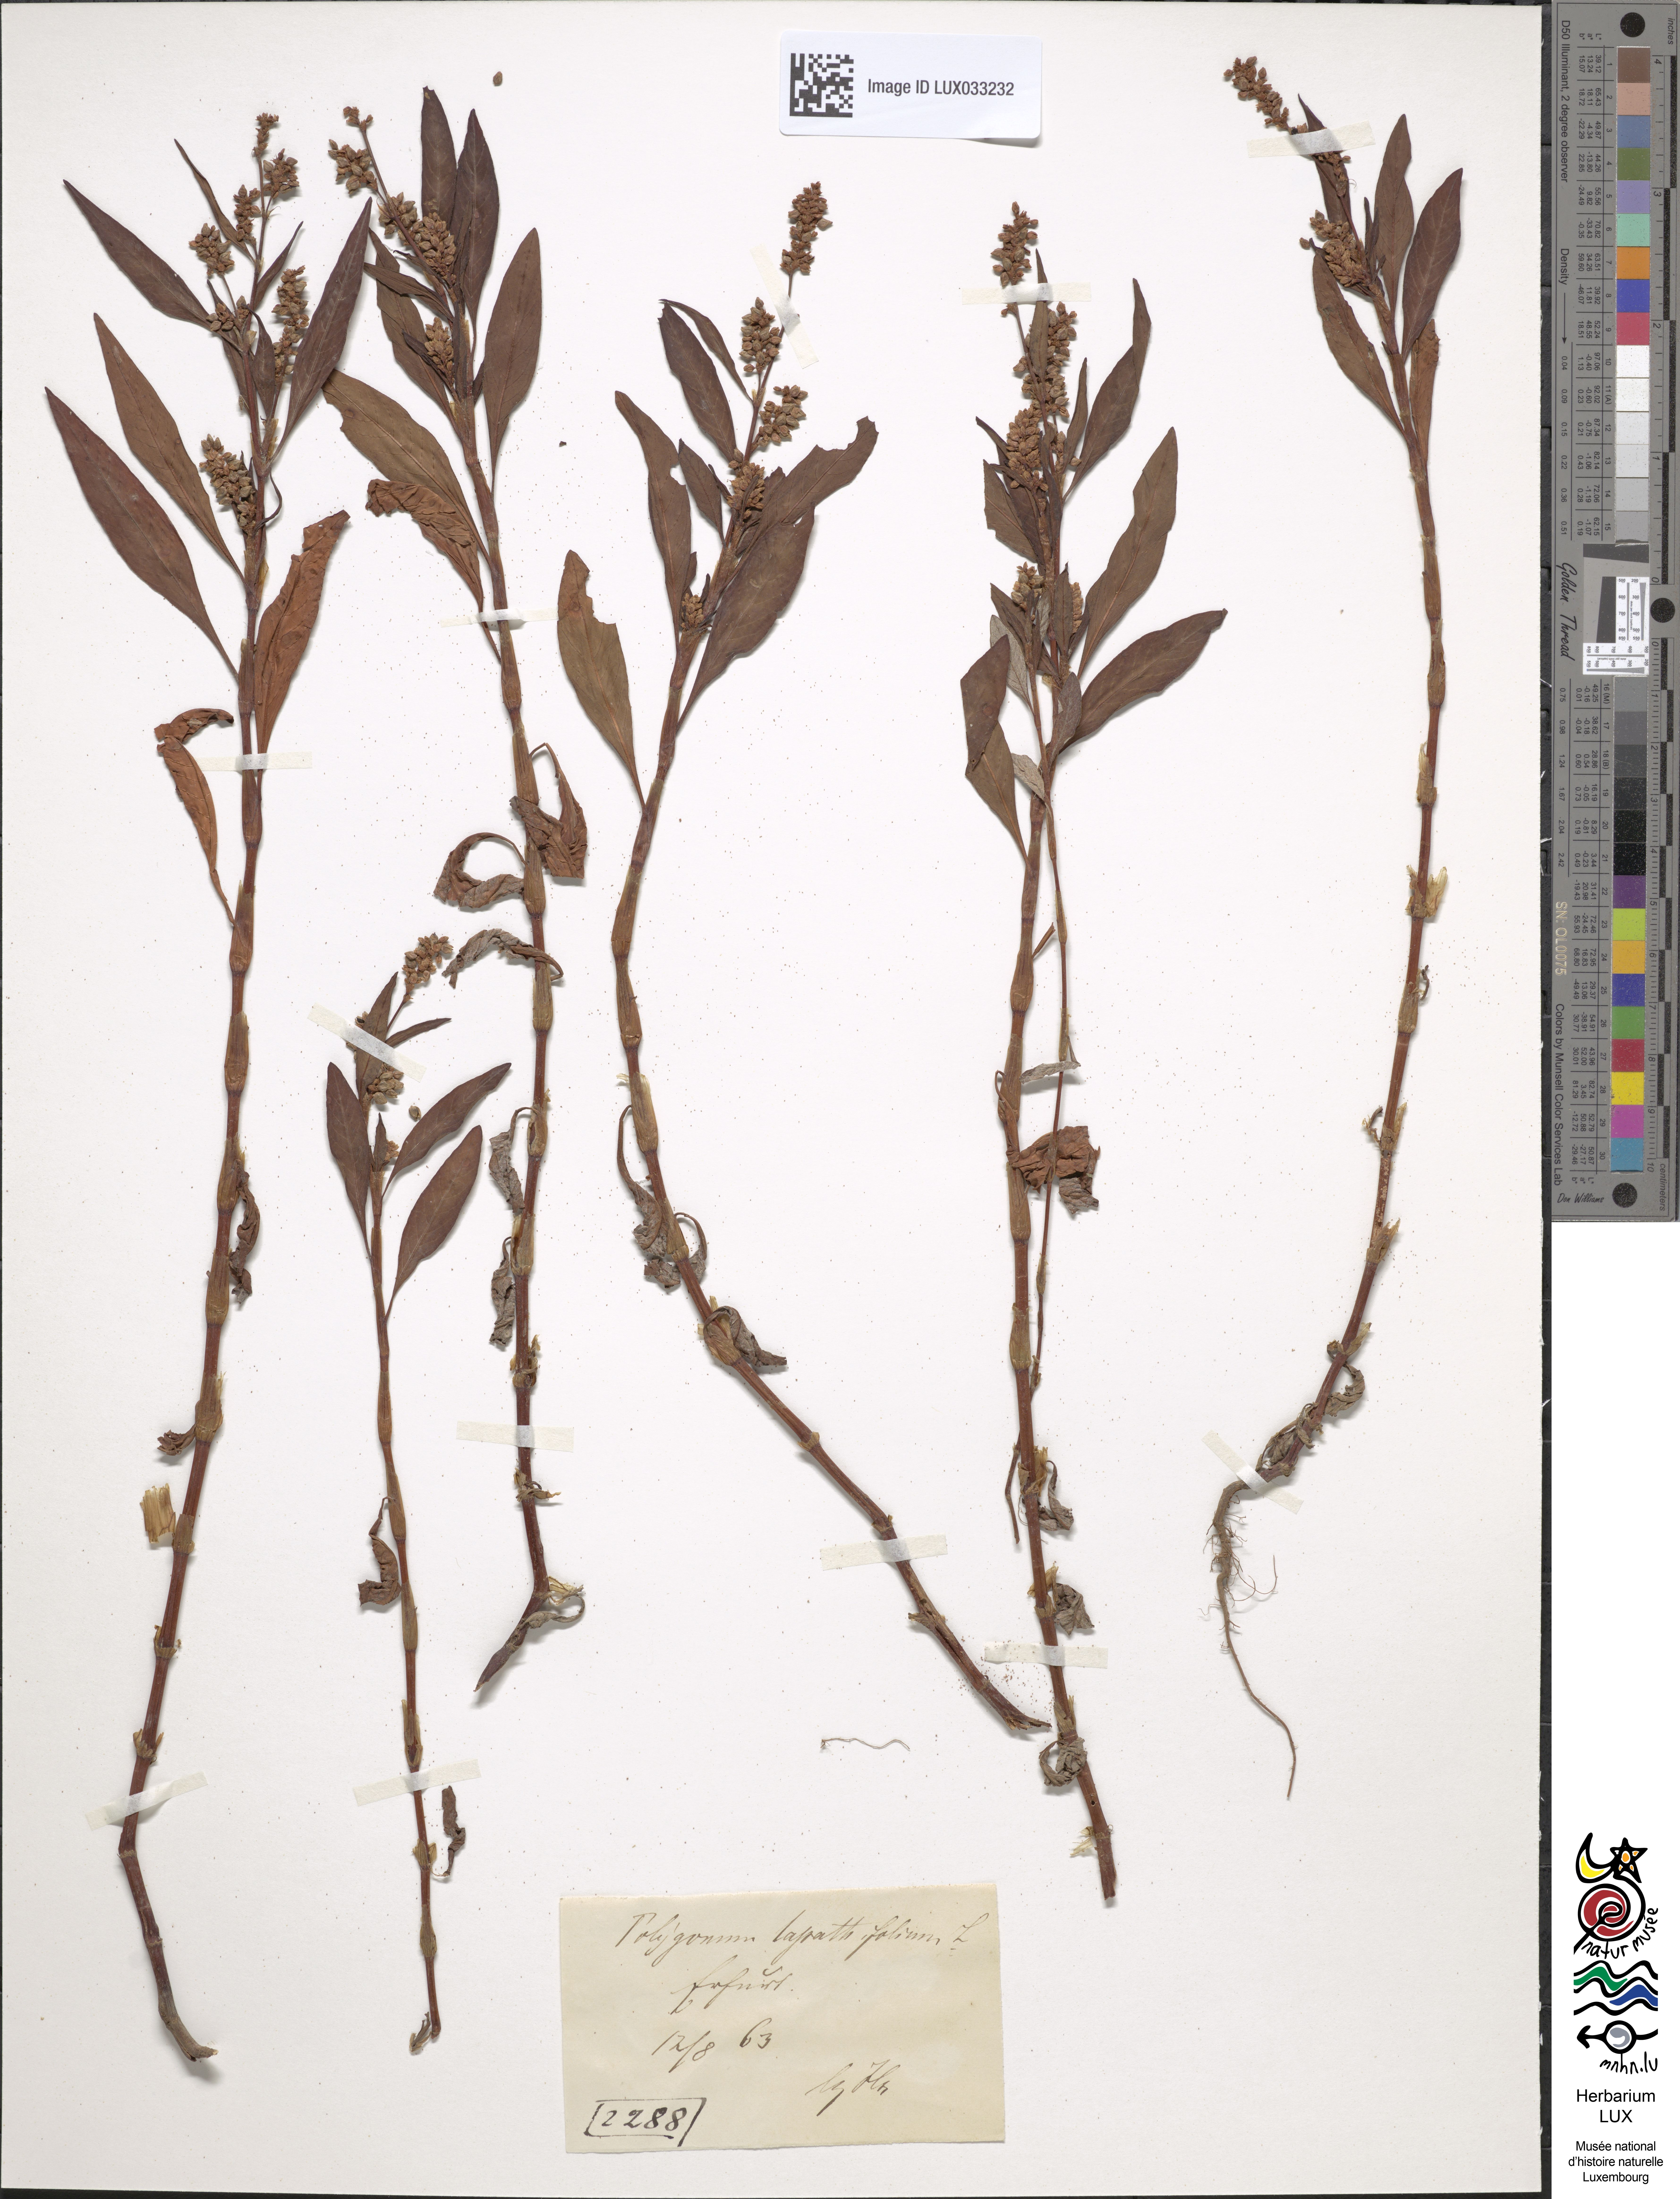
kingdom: Plantae
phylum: Tracheophyta
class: Magnoliopsida
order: Caryophyllales
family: Polygonaceae
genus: Persicaria
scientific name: Persicaria lapathifolia
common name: Curlytop knotweed
